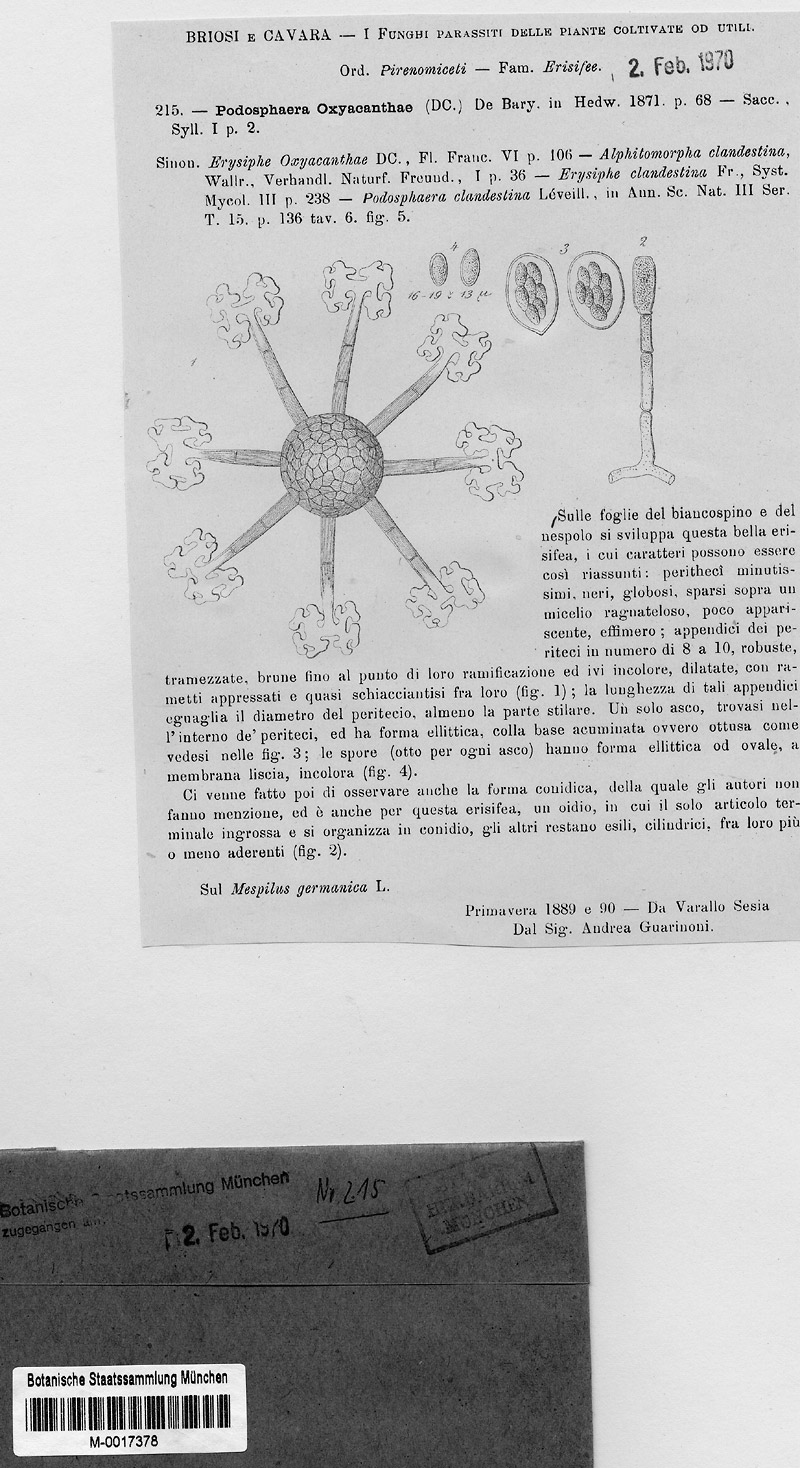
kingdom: Fungi
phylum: Ascomycota
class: Leotiomycetes
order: Helotiales
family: Erysiphaceae
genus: Podosphaera
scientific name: Podosphaera clandestina
